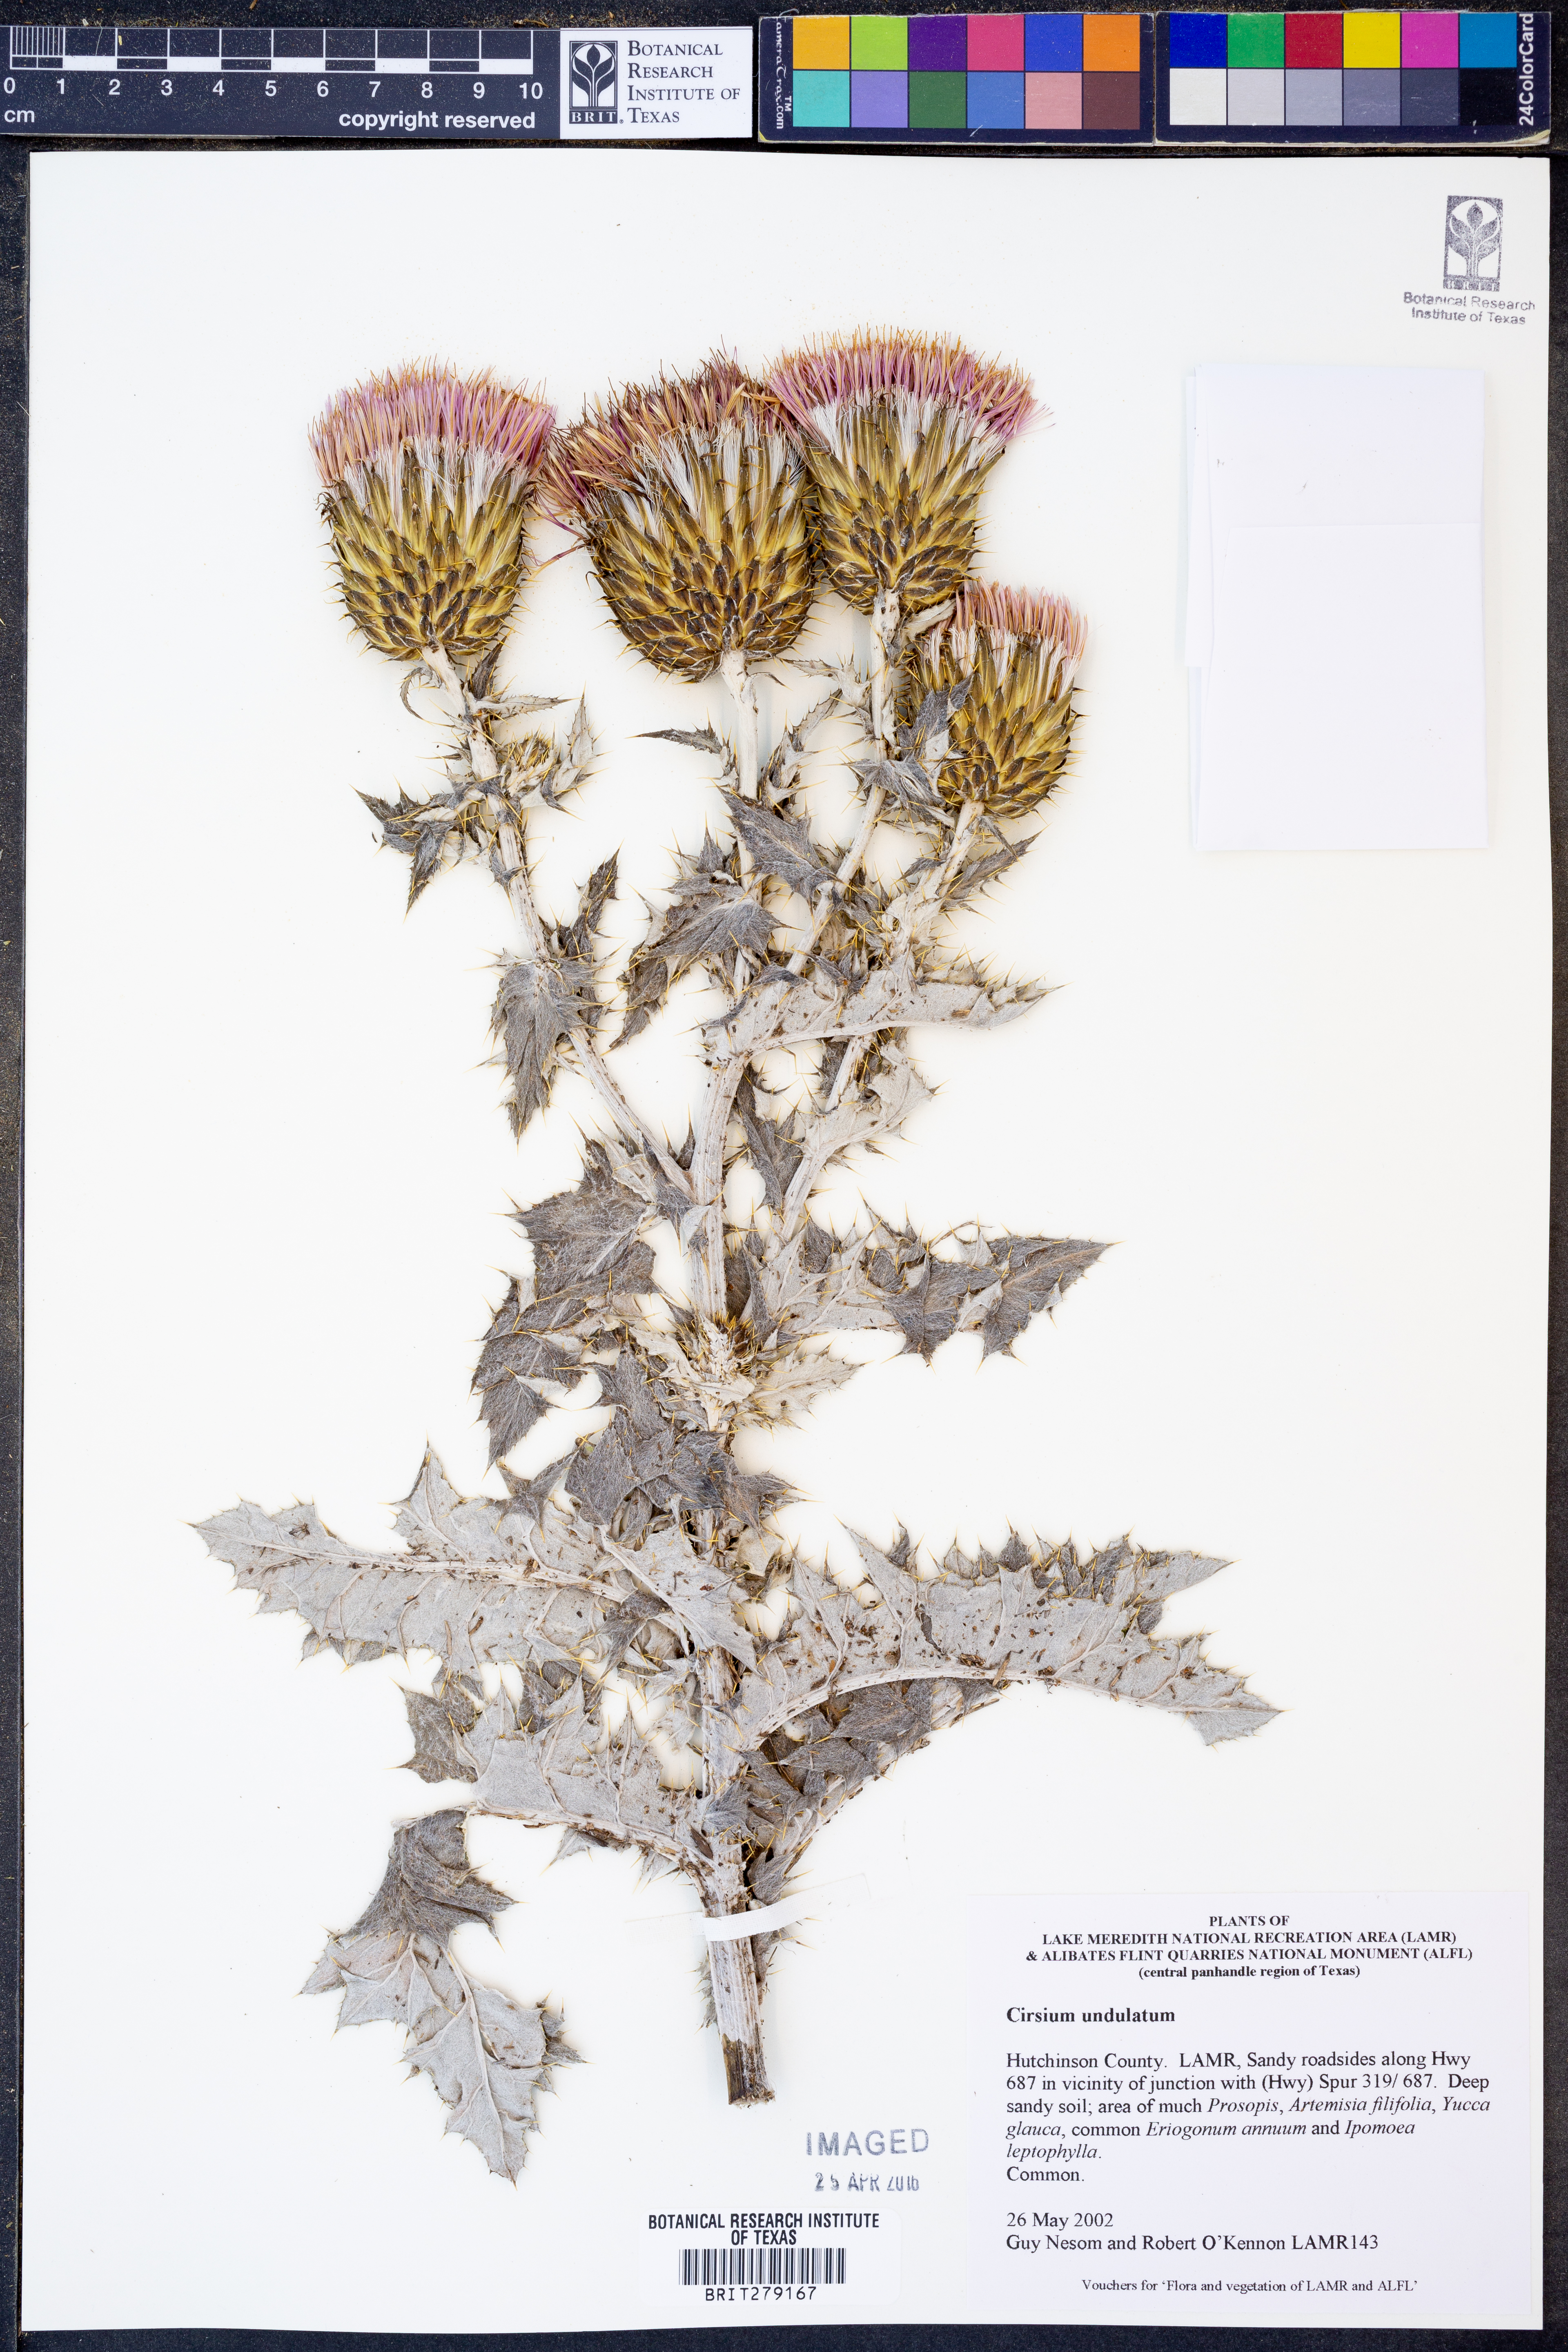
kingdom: Plantae
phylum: Tracheophyta
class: Magnoliopsida
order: Asterales
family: Asteraceae
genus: Cirsium
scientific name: Cirsium undulatum
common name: Pasture thistle
